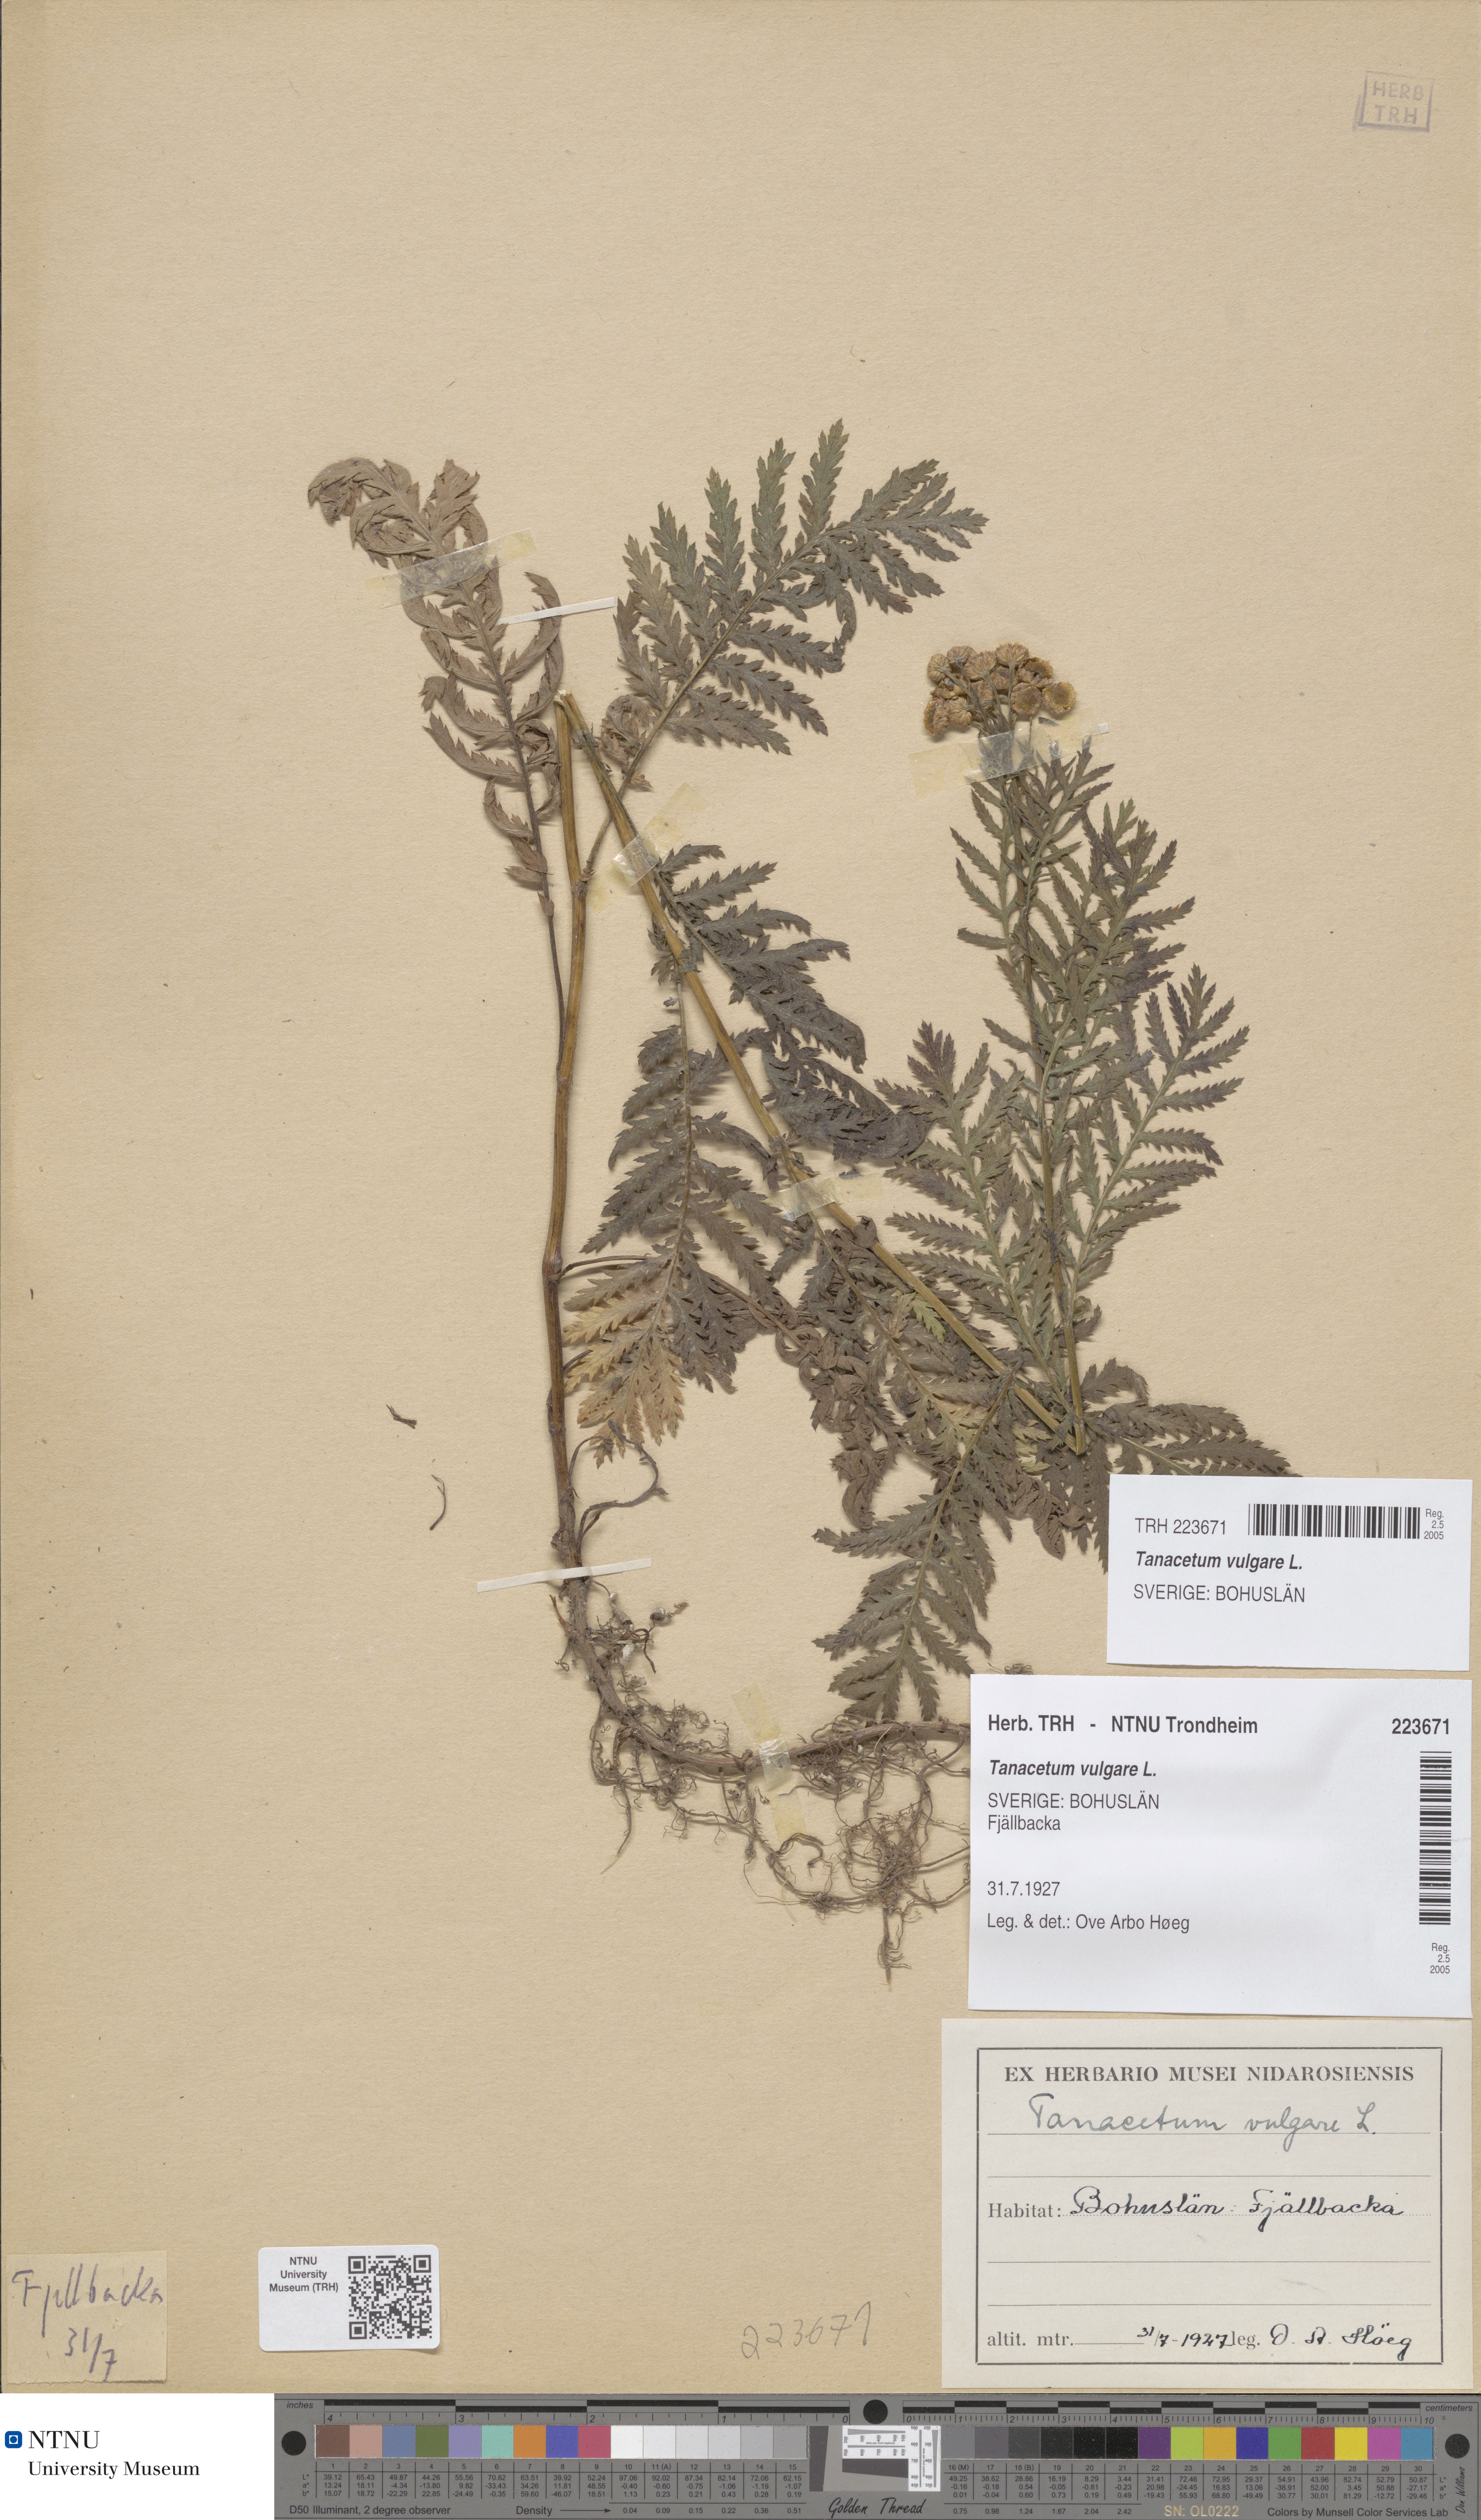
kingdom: Plantae
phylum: Tracheophyta
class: Magnoliopsida
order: Asterales
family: Asteraceae
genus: Tanacetum
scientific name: Tanacetum vulgare
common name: Common tansy
